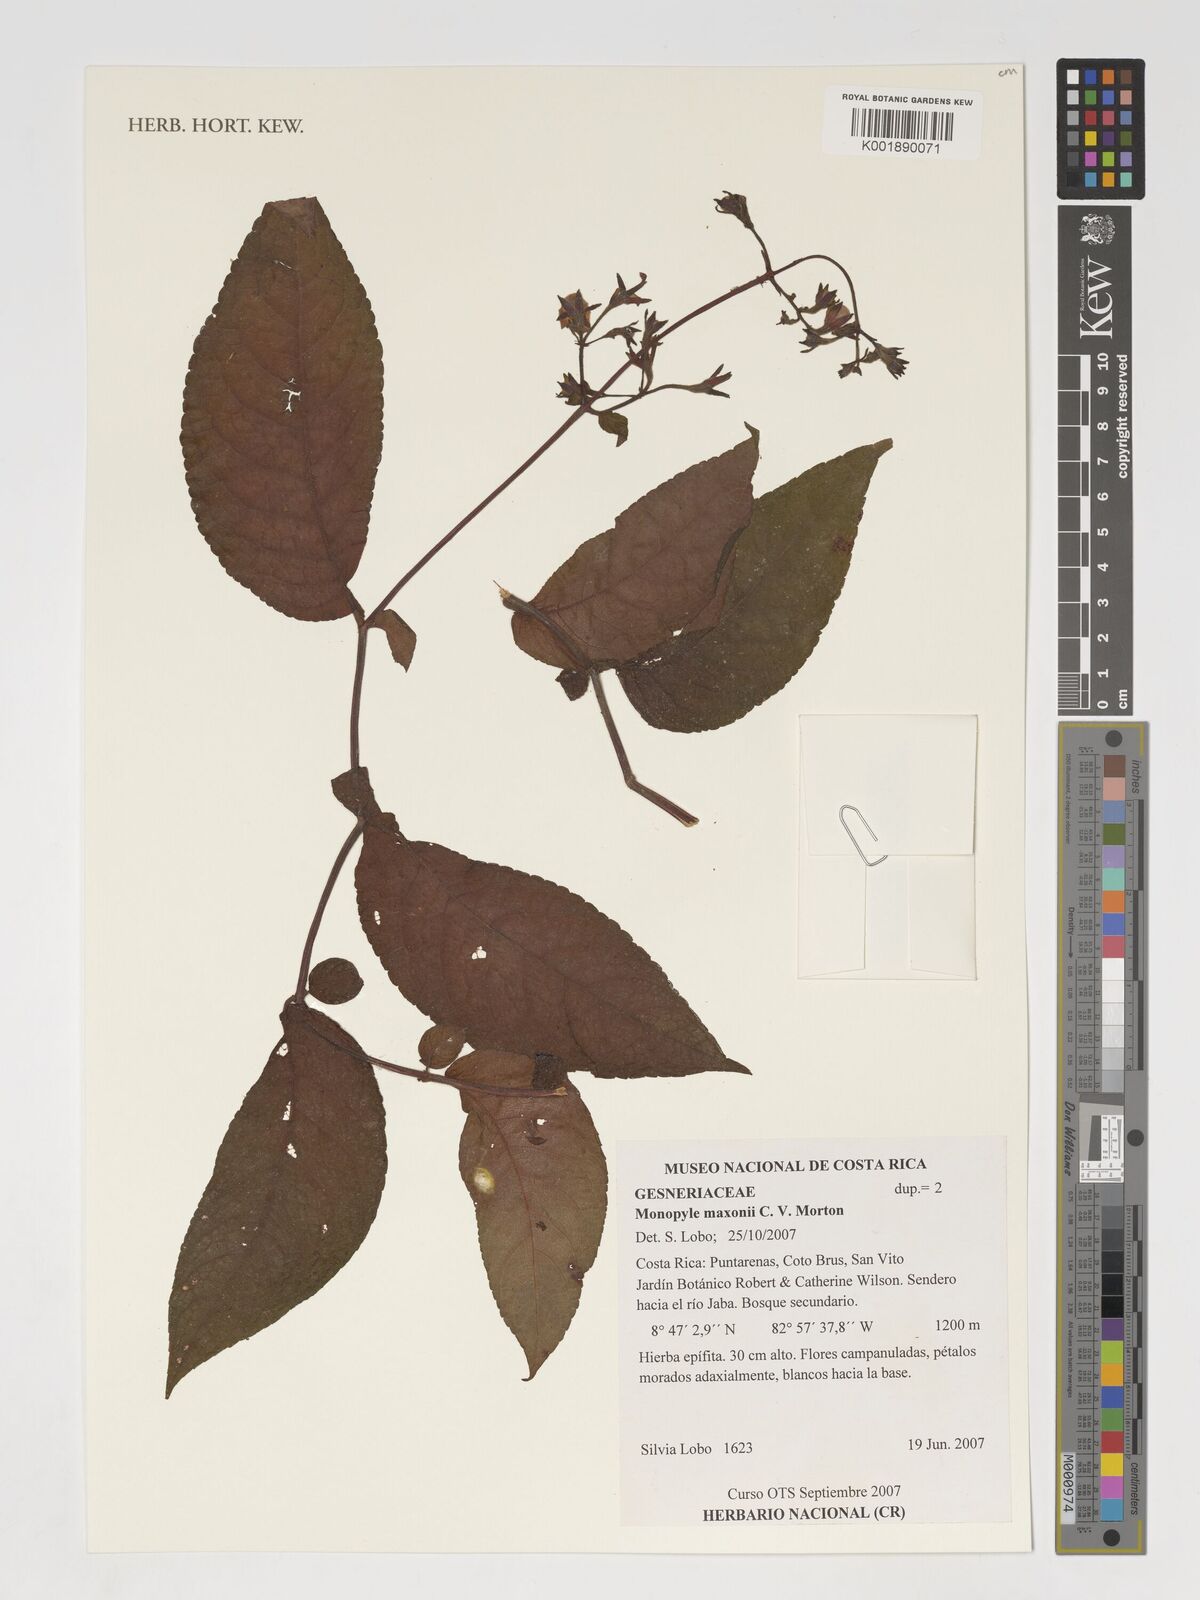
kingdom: Plantae
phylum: Tracheophyta
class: Magnoliopsida
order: Lamiales
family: Gesneriaceae
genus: Monopyle
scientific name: Monopyle maxonii
